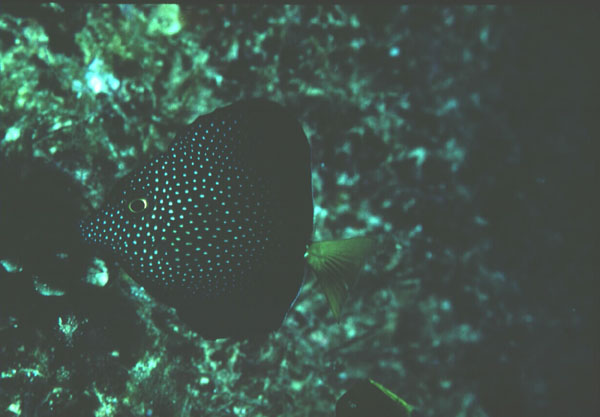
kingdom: Animalia
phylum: Chordata
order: Perciformes
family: Acanthuridae
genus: Zebrasoma
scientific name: Zebrasoma gemmatum
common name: Gem surgeonfish
